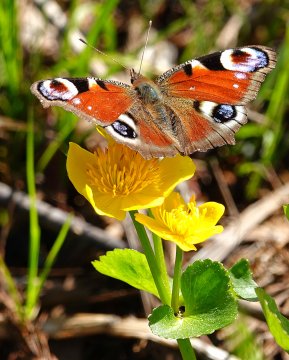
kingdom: Animalia
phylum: Arthropoda
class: Insecta
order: Lepidoptera
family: Nymphalidae
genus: Aglais
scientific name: Aglais io
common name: European Peacock
